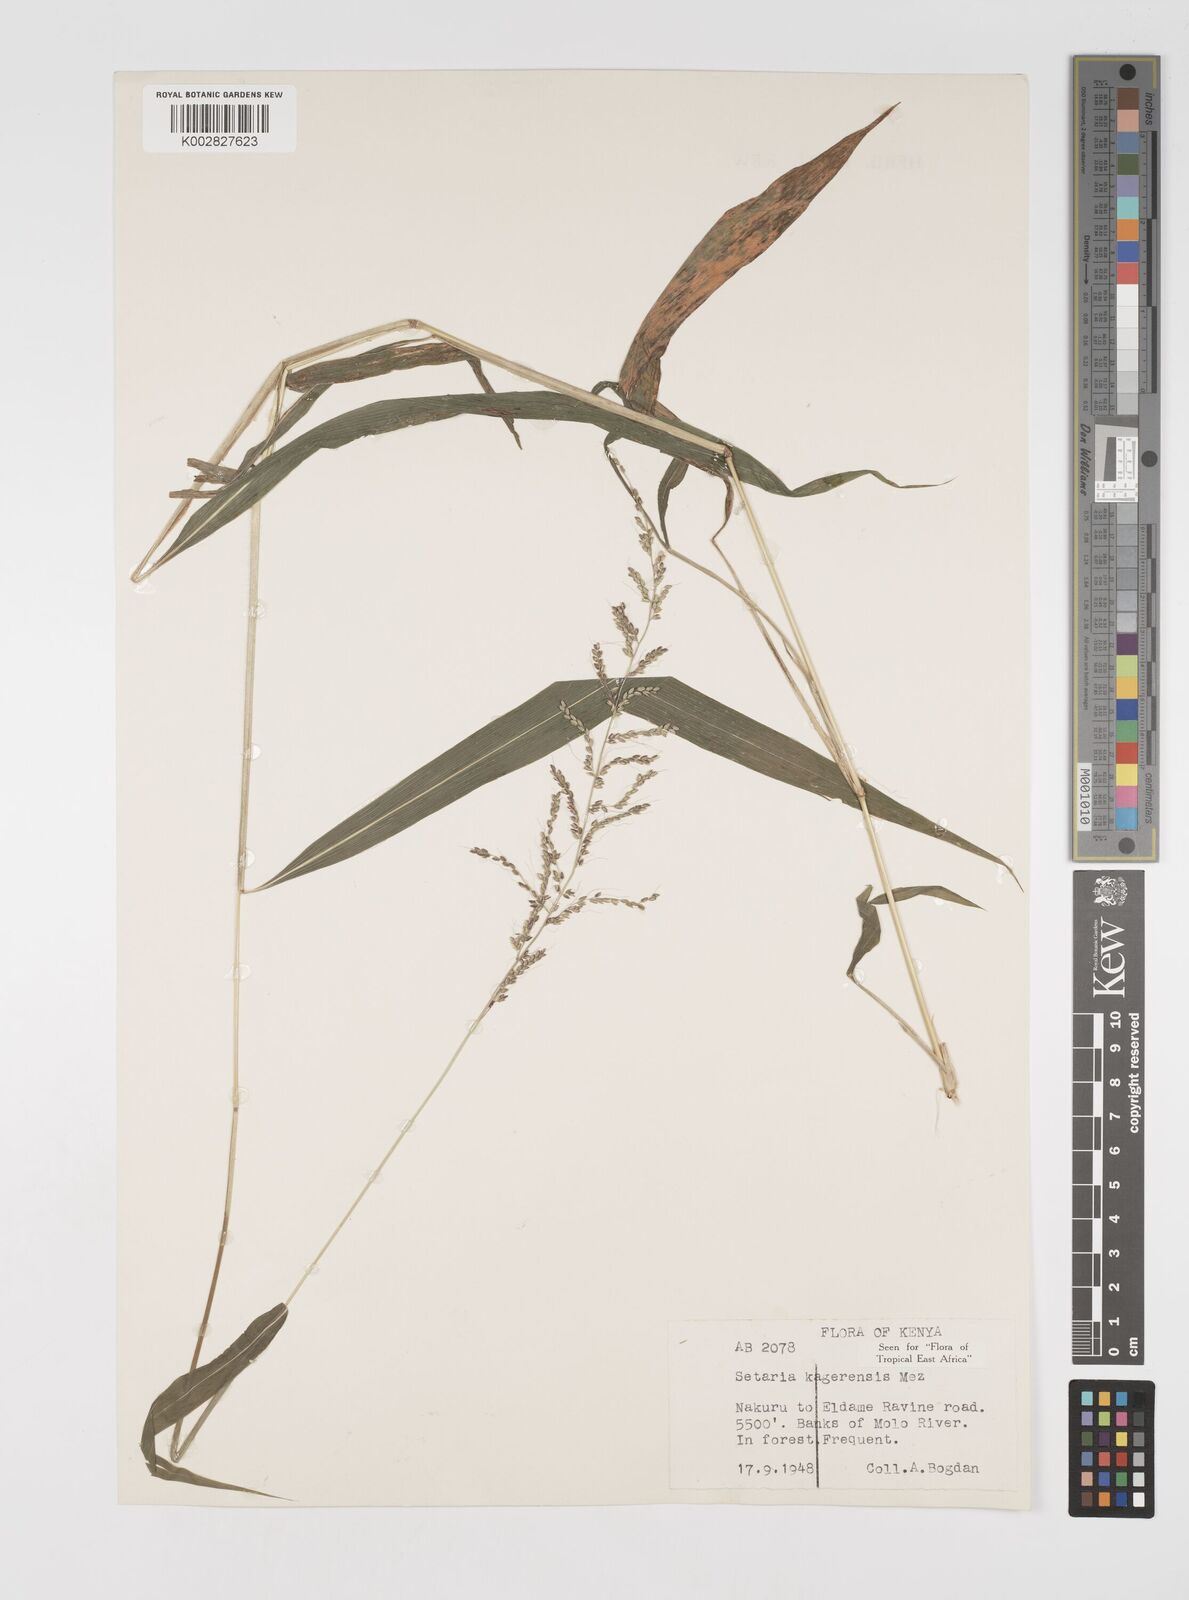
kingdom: Plantae
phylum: Tracheophyta
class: Liliopsida
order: Poales
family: Poaceae
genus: Setaria
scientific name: Setaria kagerensis
